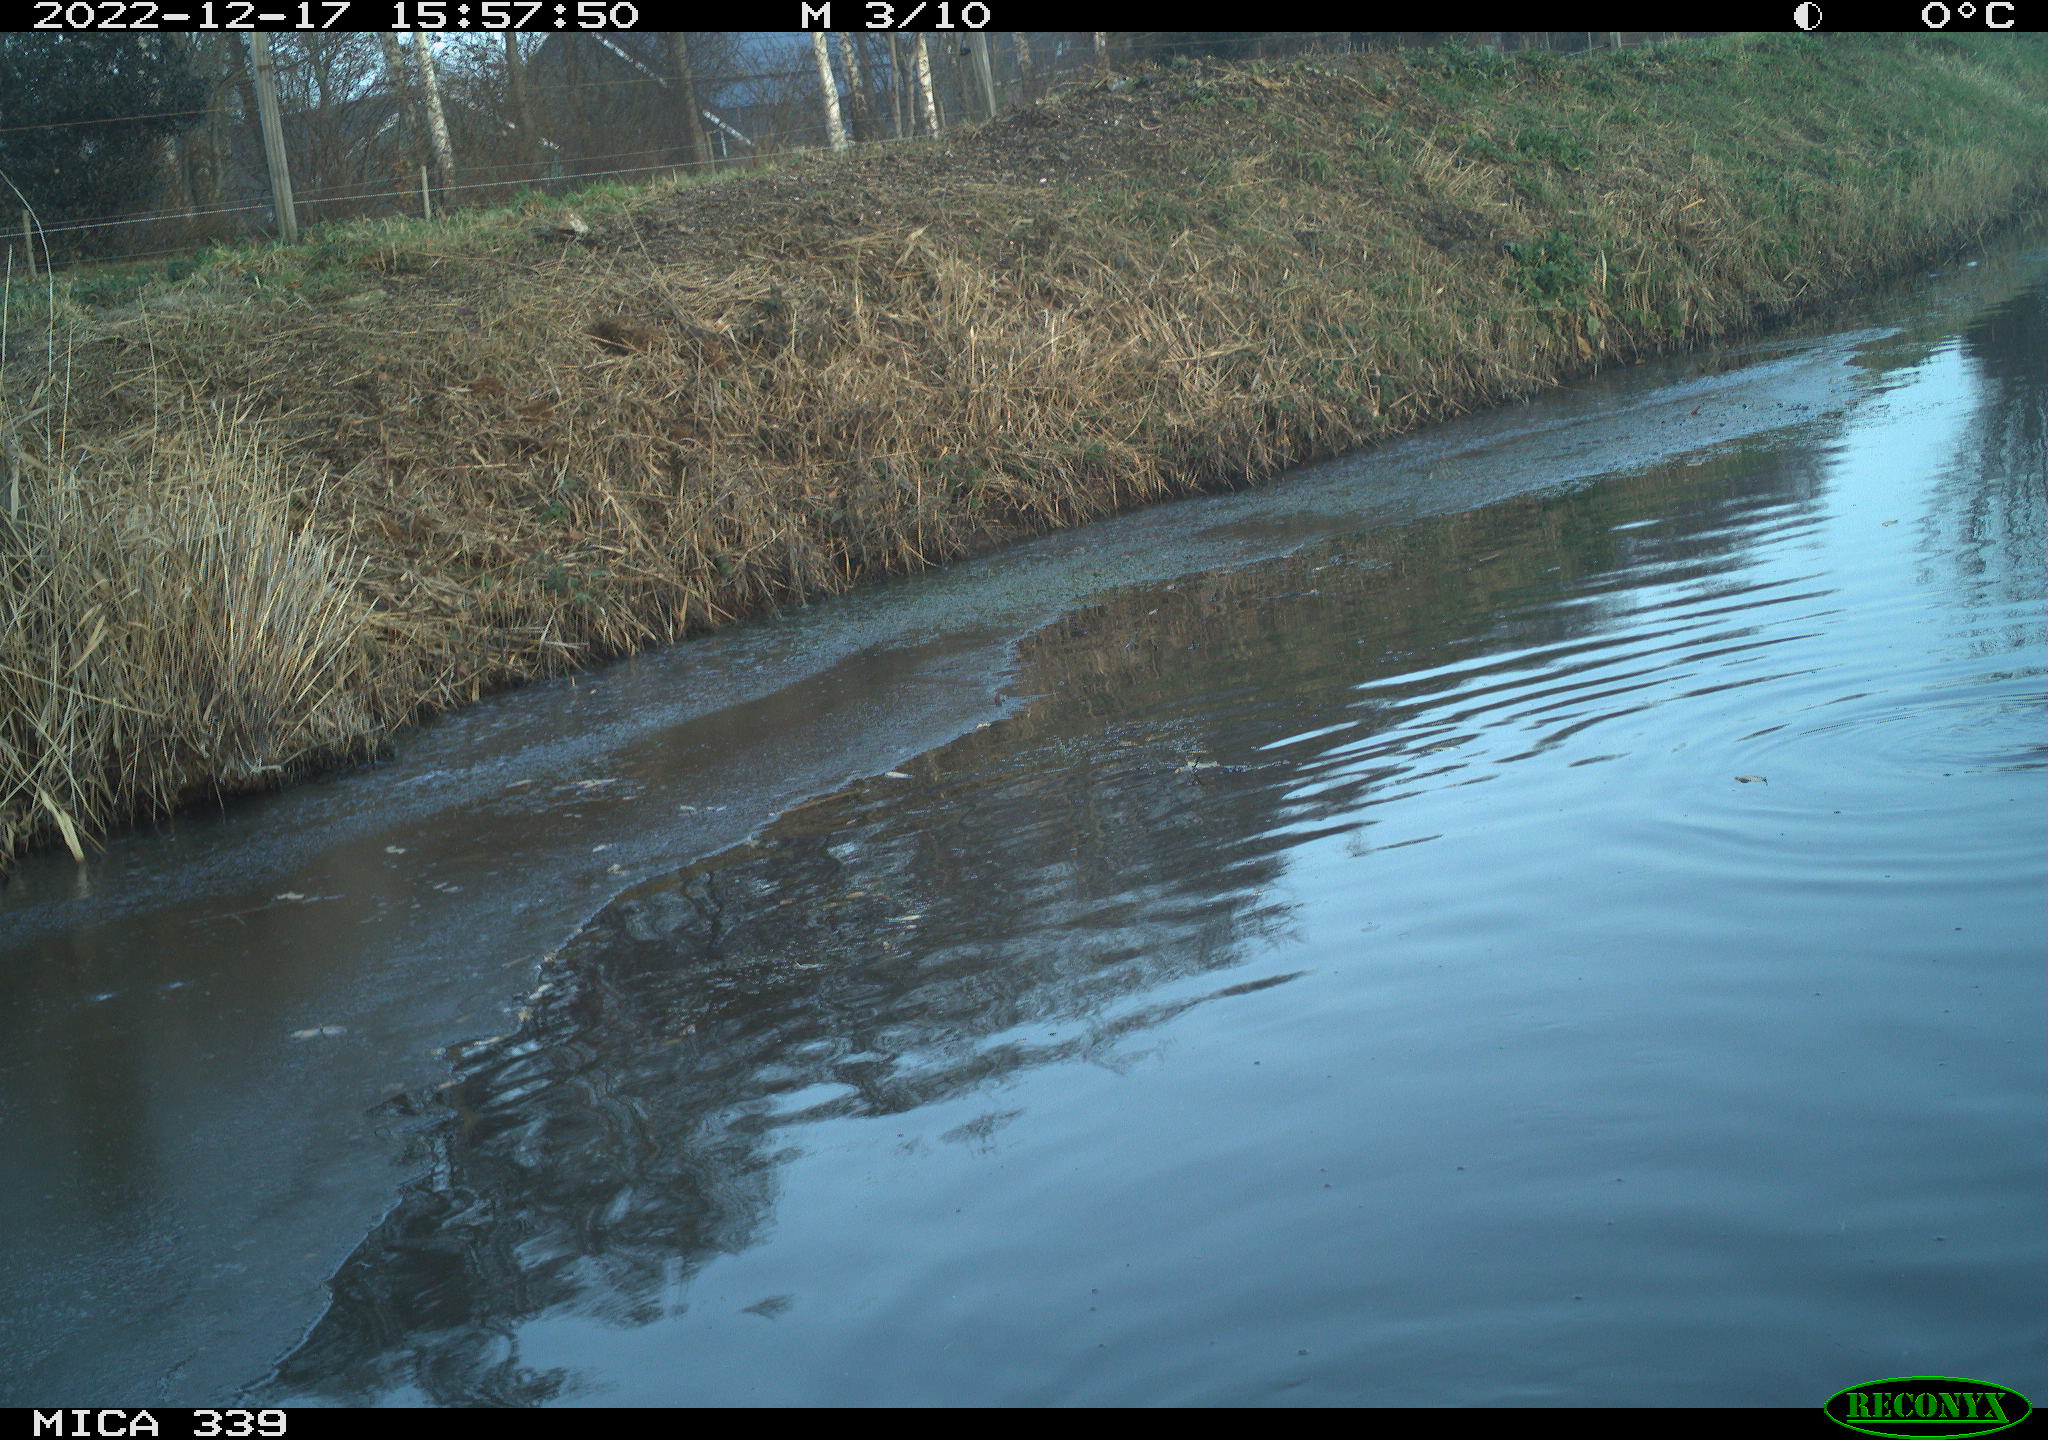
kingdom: Animalia
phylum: Chordata
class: Aves
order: Anseriformes
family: Anatidae
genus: Anas
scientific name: Anas
